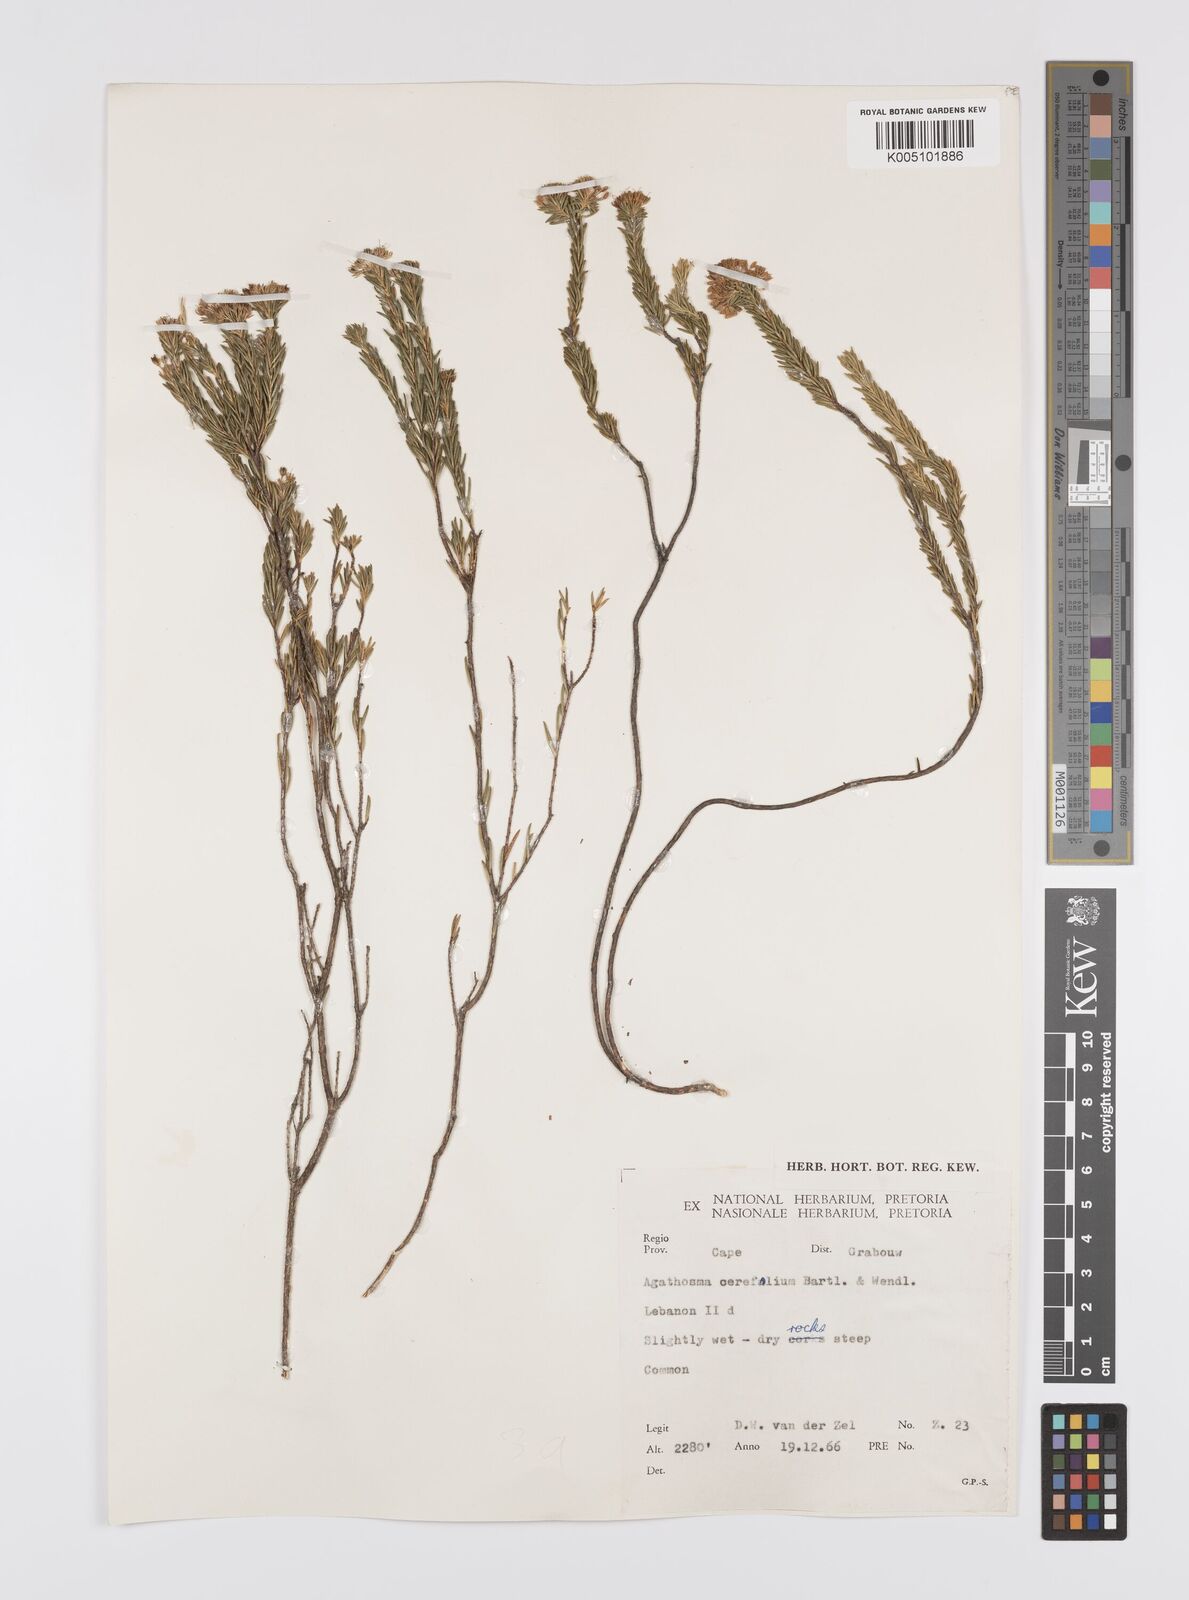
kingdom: Plantae
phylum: Tracheophyta
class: Magnoliopsida
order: Sapindales
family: Rutaceae
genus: Agathosma
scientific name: Agathosma cerefolia
